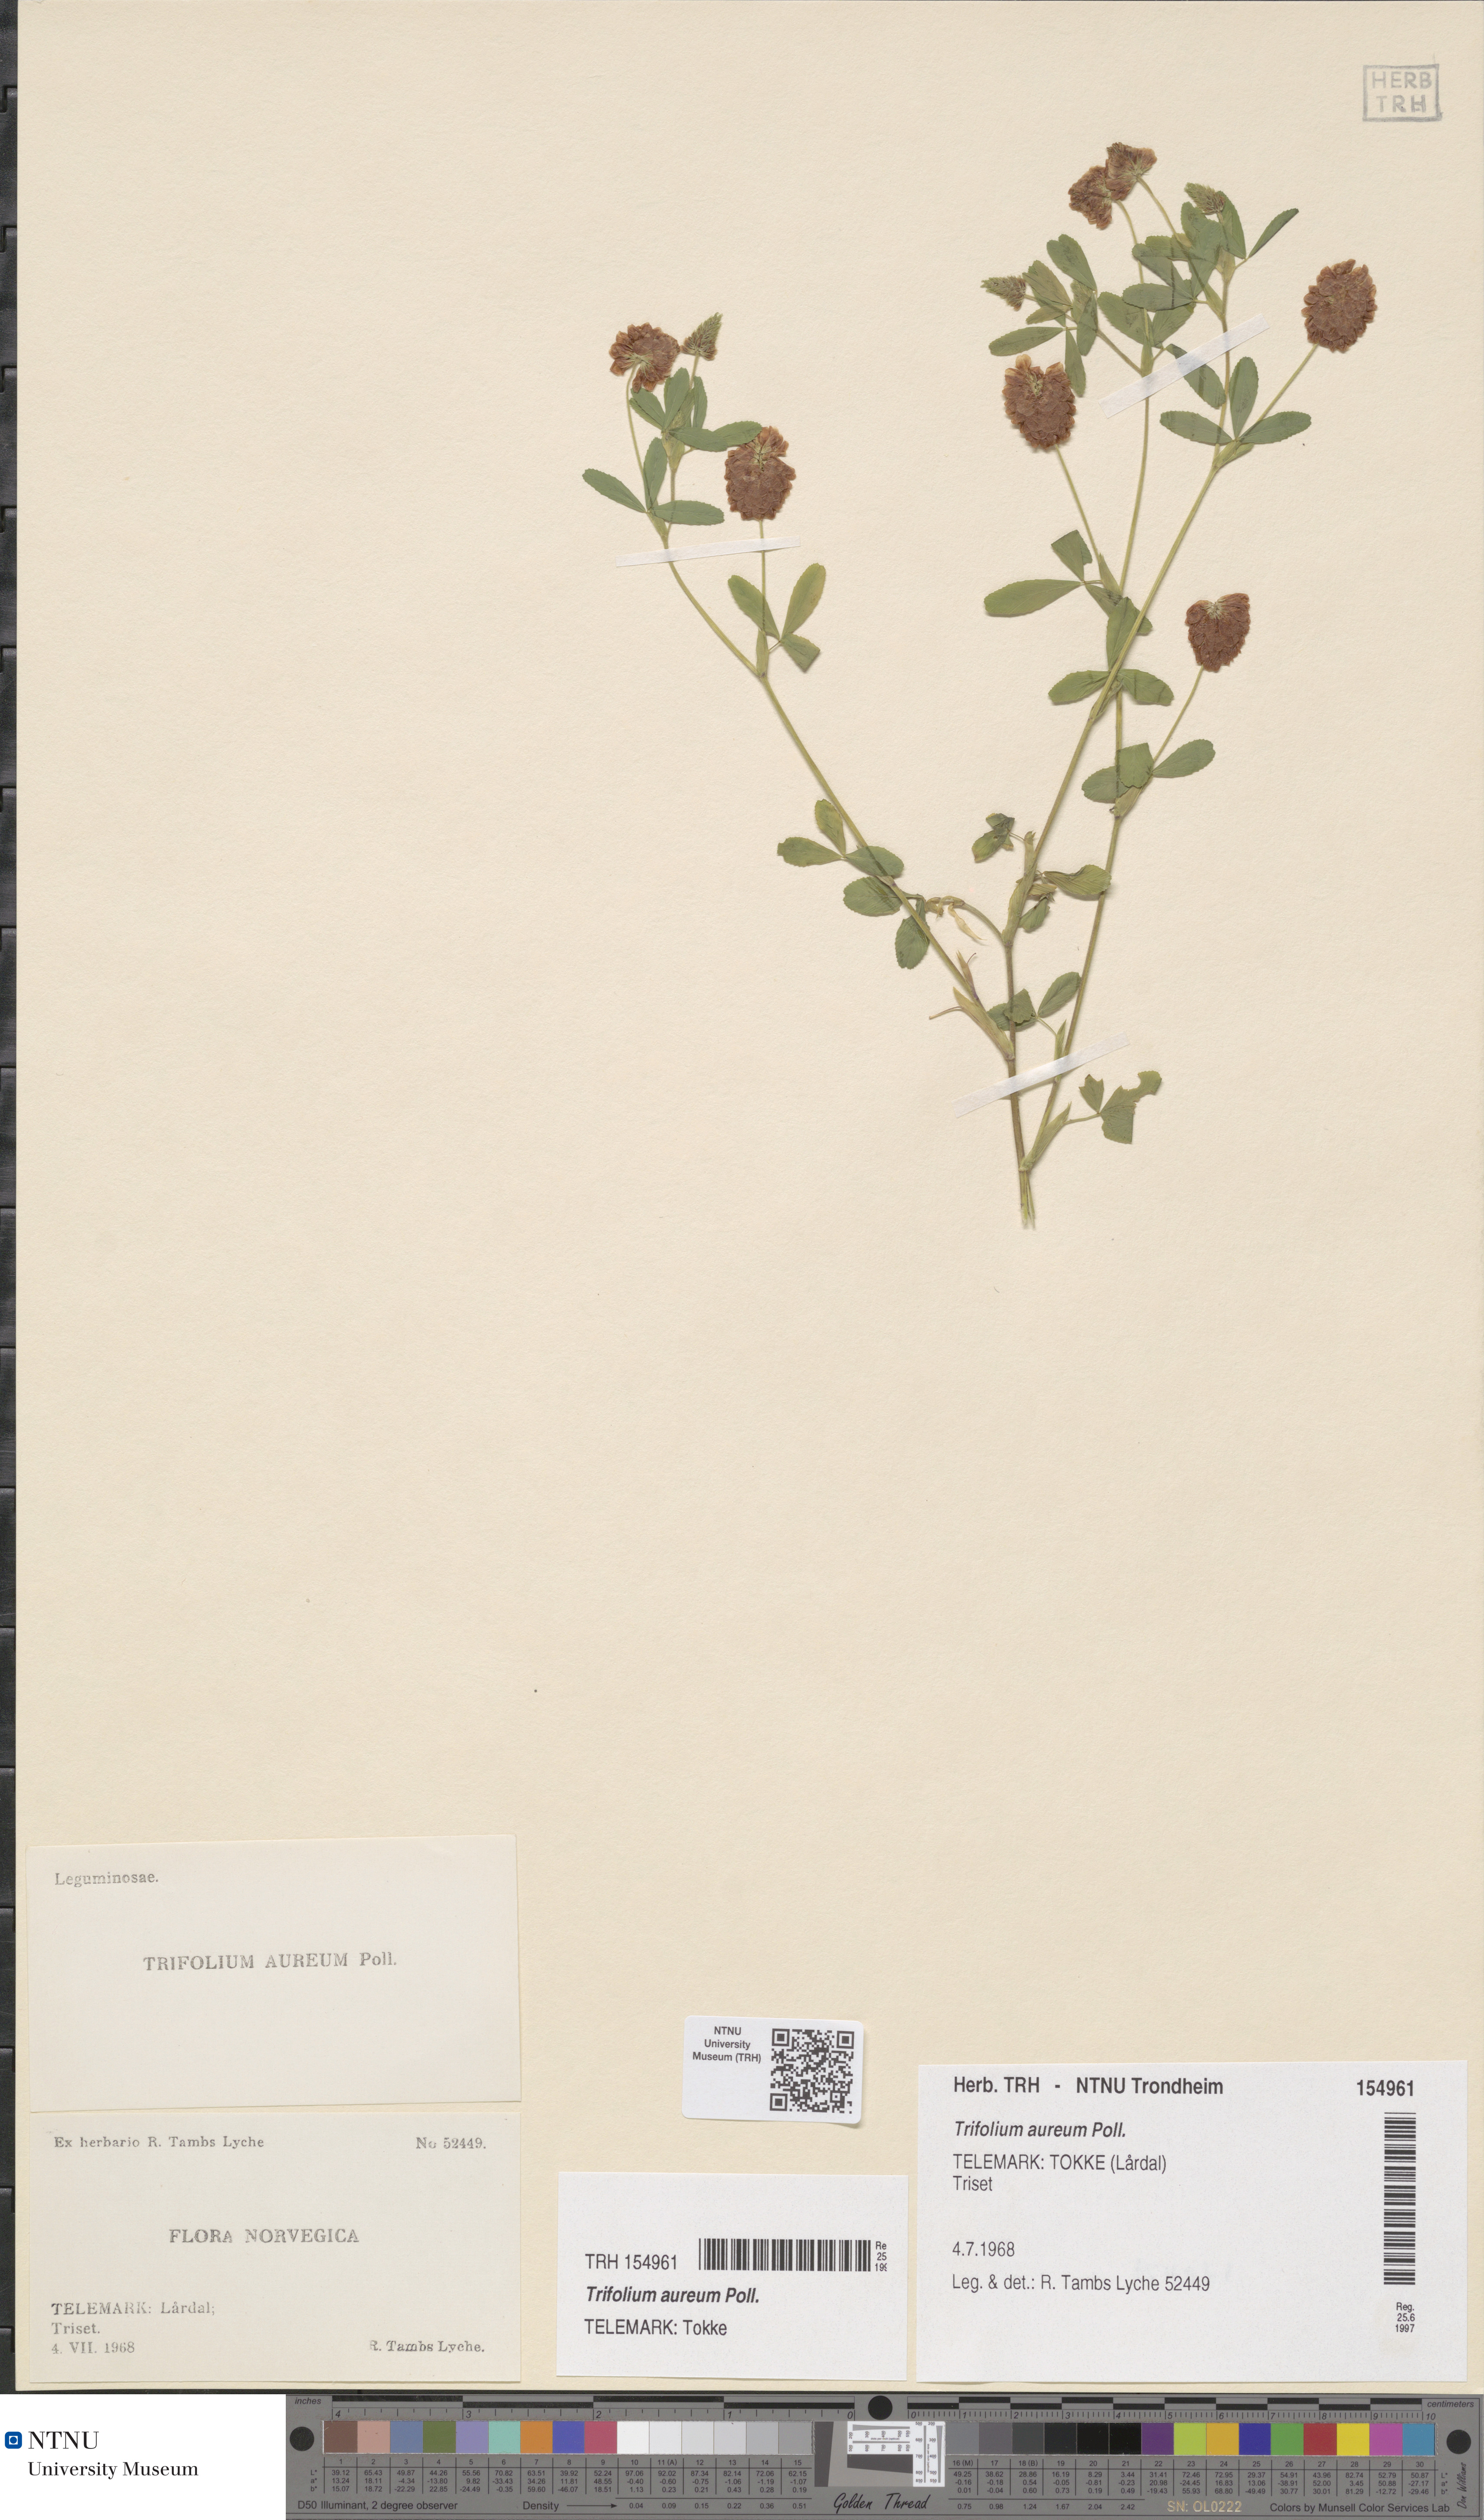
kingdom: Plantae
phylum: Tracheophyta
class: Magnoliopsida
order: Fabales
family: Fabaceae
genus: Trifolium
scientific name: Trifolium aureum
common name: Golden clover
